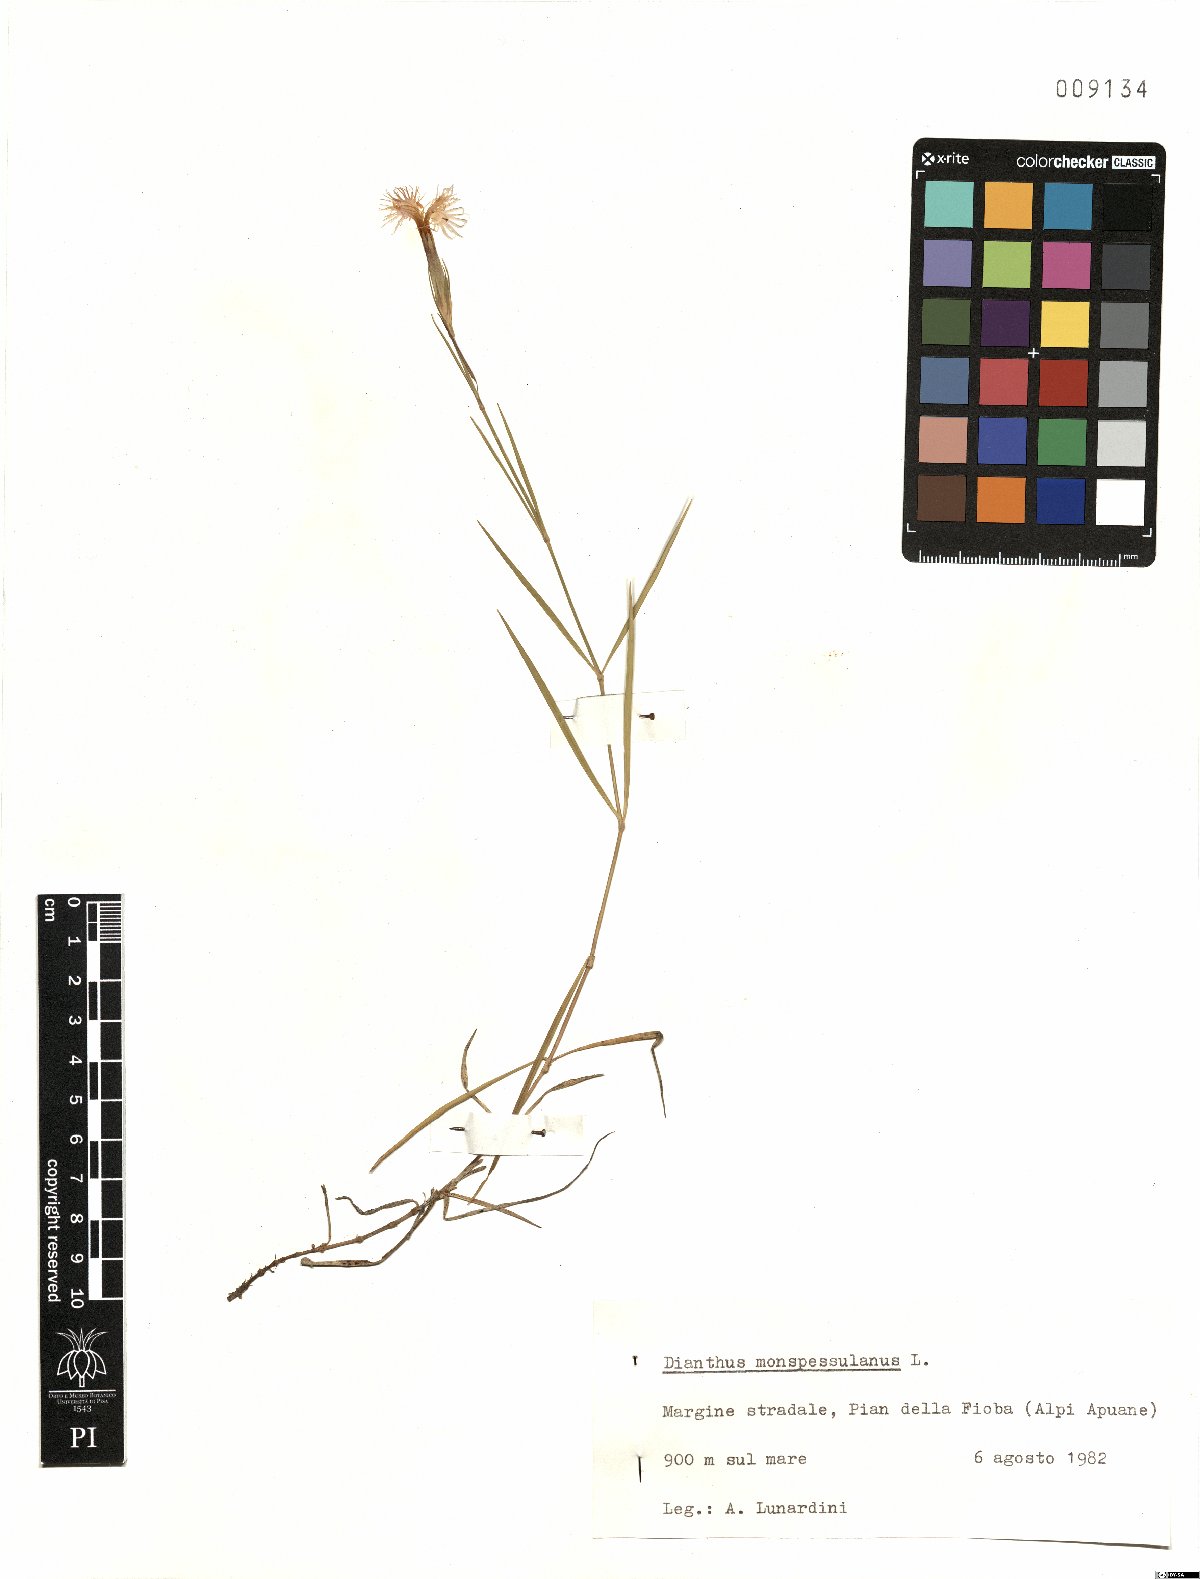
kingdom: Plantae
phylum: Tracheophyta
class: Magnoliopsida
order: Caryophyllales
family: Caryophyllaceae
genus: Dianthus
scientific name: Dianthus hyssopifolius
